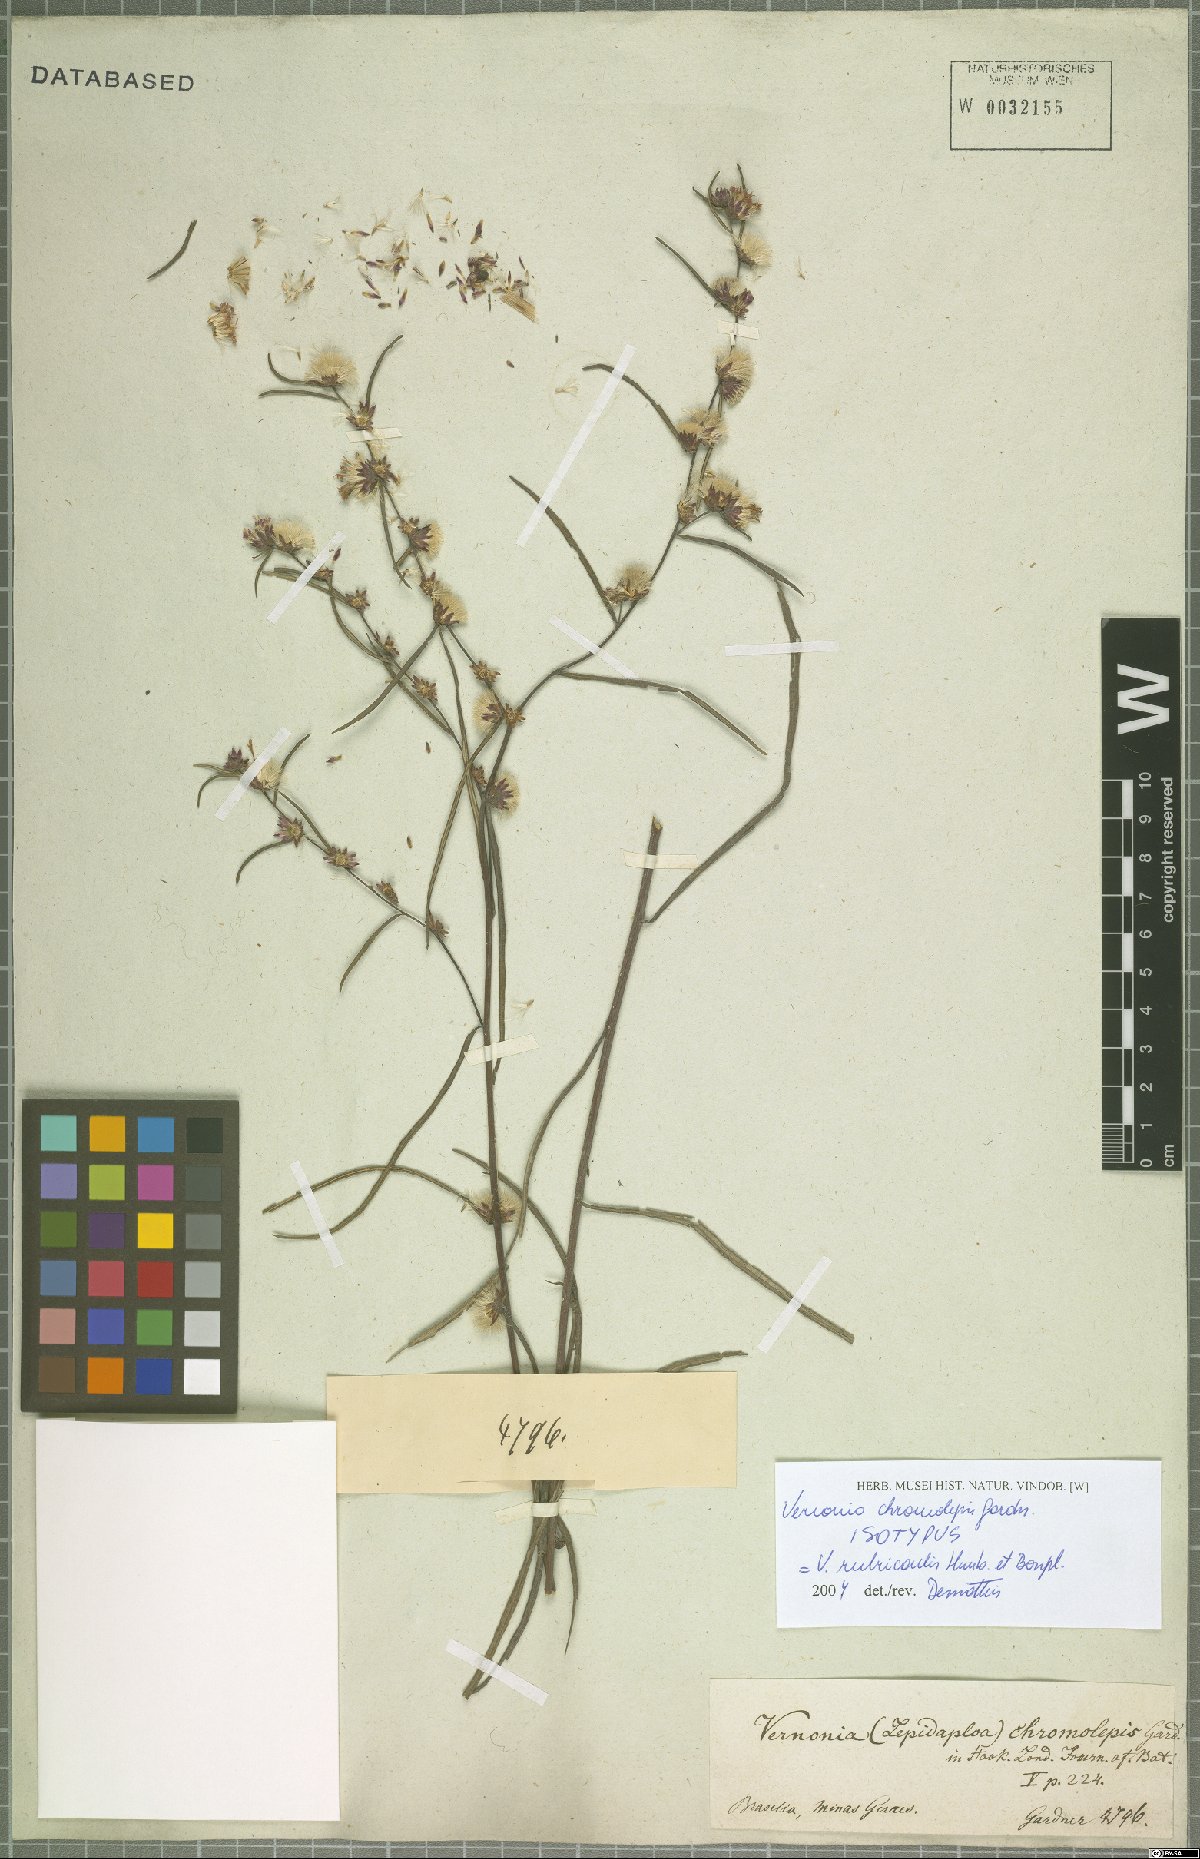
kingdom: Plantae
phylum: Tracheophyta
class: Magnoliopsida
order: Asterales
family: Asteraceae
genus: Lessingianthus
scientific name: Lessingianthus rubricaulis
